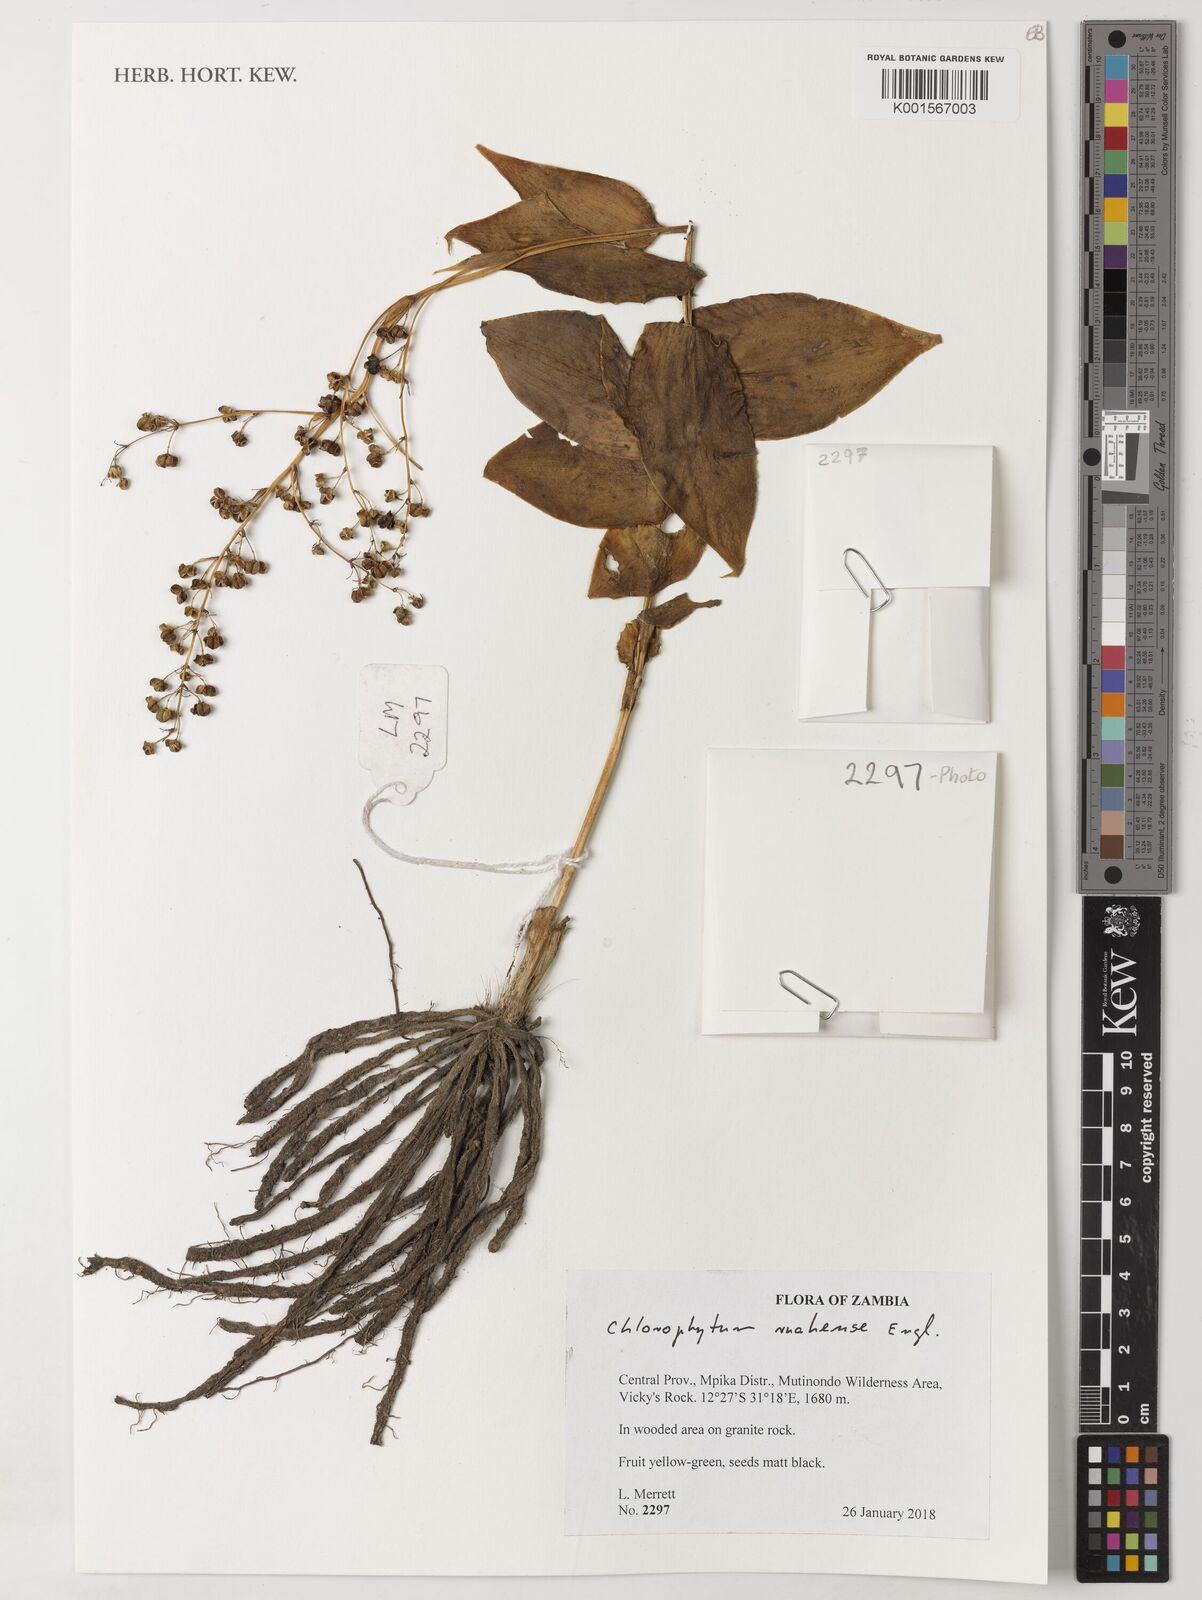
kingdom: Plantae
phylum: Tracheophyta
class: Liliopsida
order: Asparagales
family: Asparagaceae
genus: Chlorophytum
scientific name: Chlorophytum ruahense
